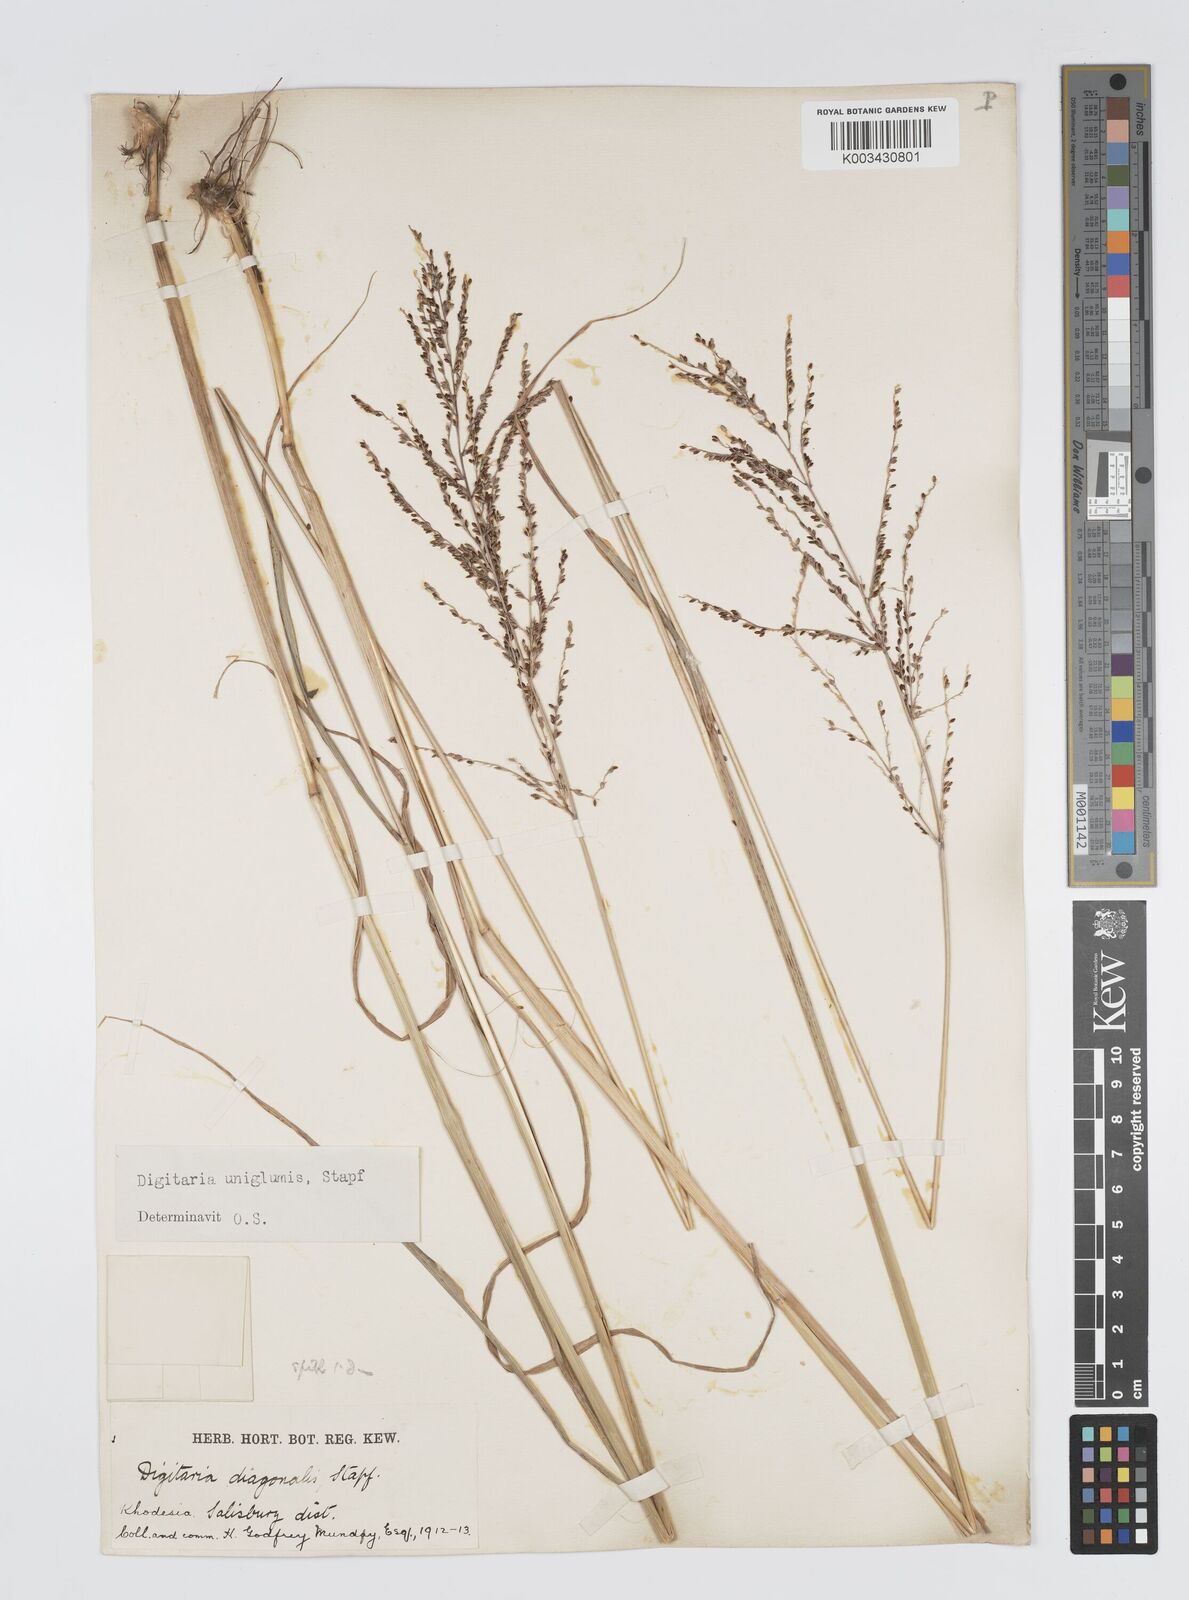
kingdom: Plantae
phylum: Tracheophyta
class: Liliopsida
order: Poales
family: Poaceae
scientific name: Poaceae
